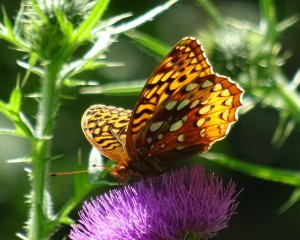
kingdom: Animalia
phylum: Arthropoda
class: Insecta
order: Lepidoptera
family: Nymphalidae
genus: Speyeria
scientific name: Speyeria cybele
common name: Great Spangled Fritillary
